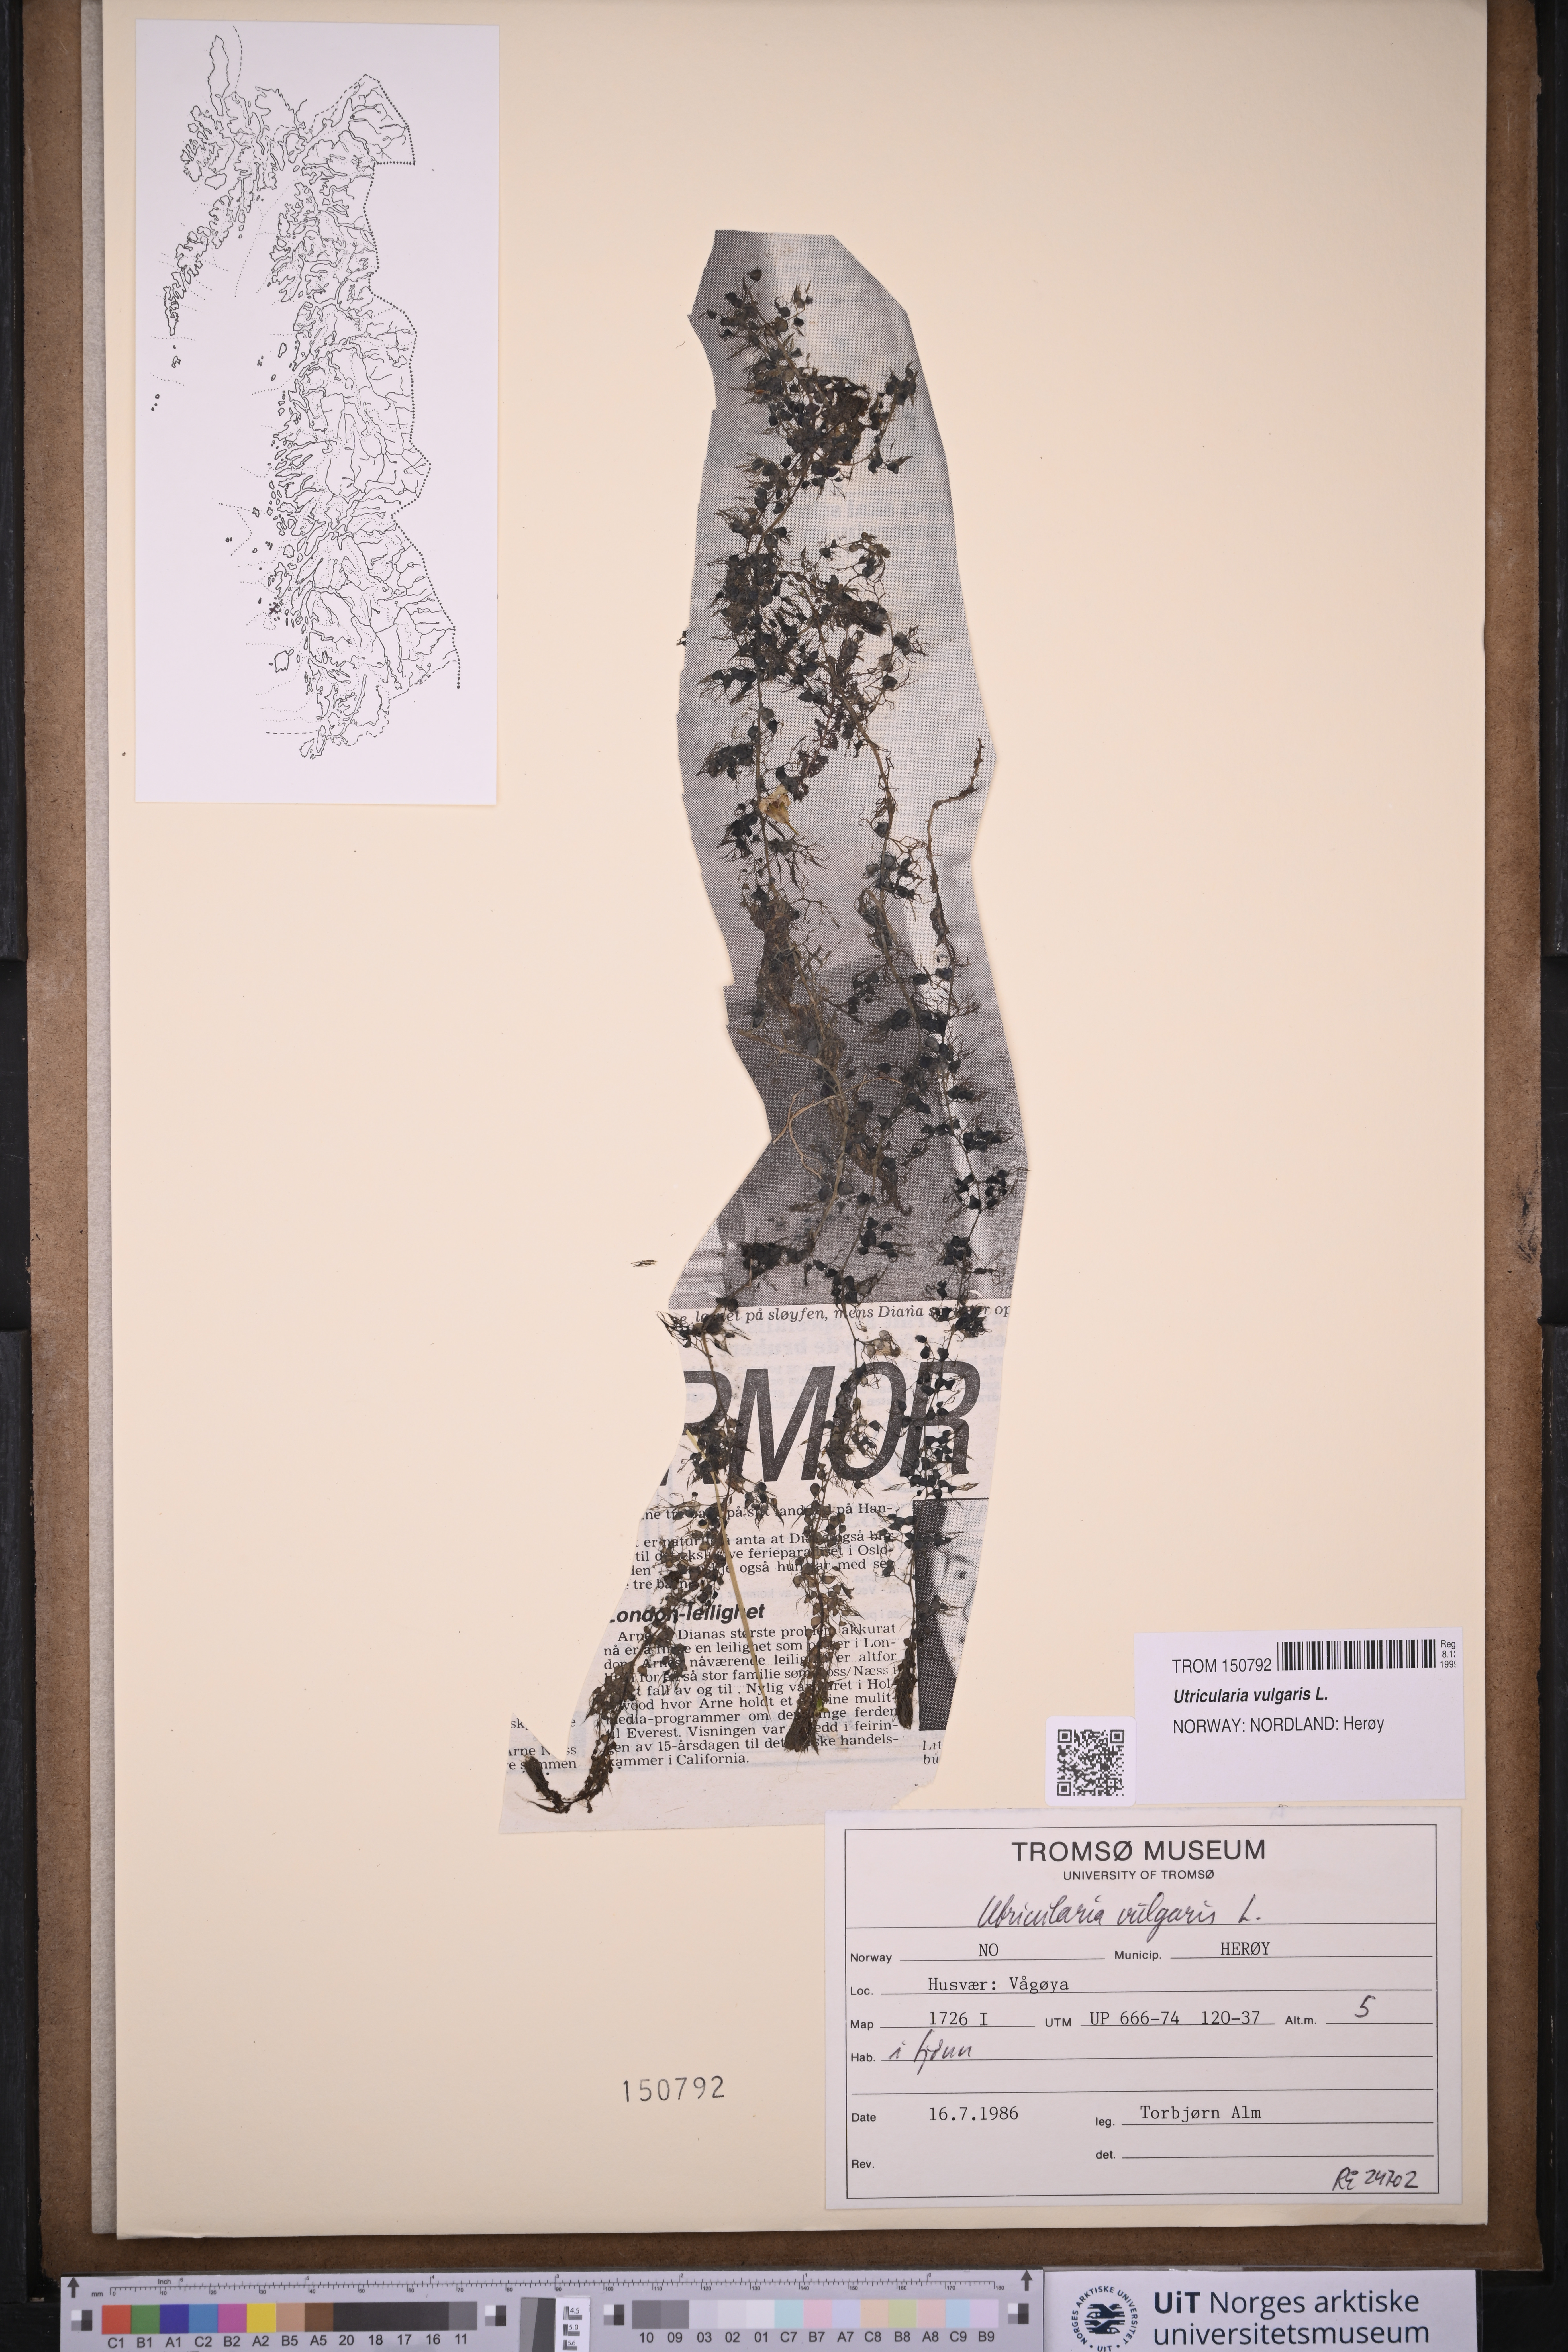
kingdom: Plantae
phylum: Tracheophyta
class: Magnoliopsida
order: Lamiales
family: Lentibulariaceae
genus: Utricularia
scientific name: Utricularia vulgaris
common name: Greater bladderwort
